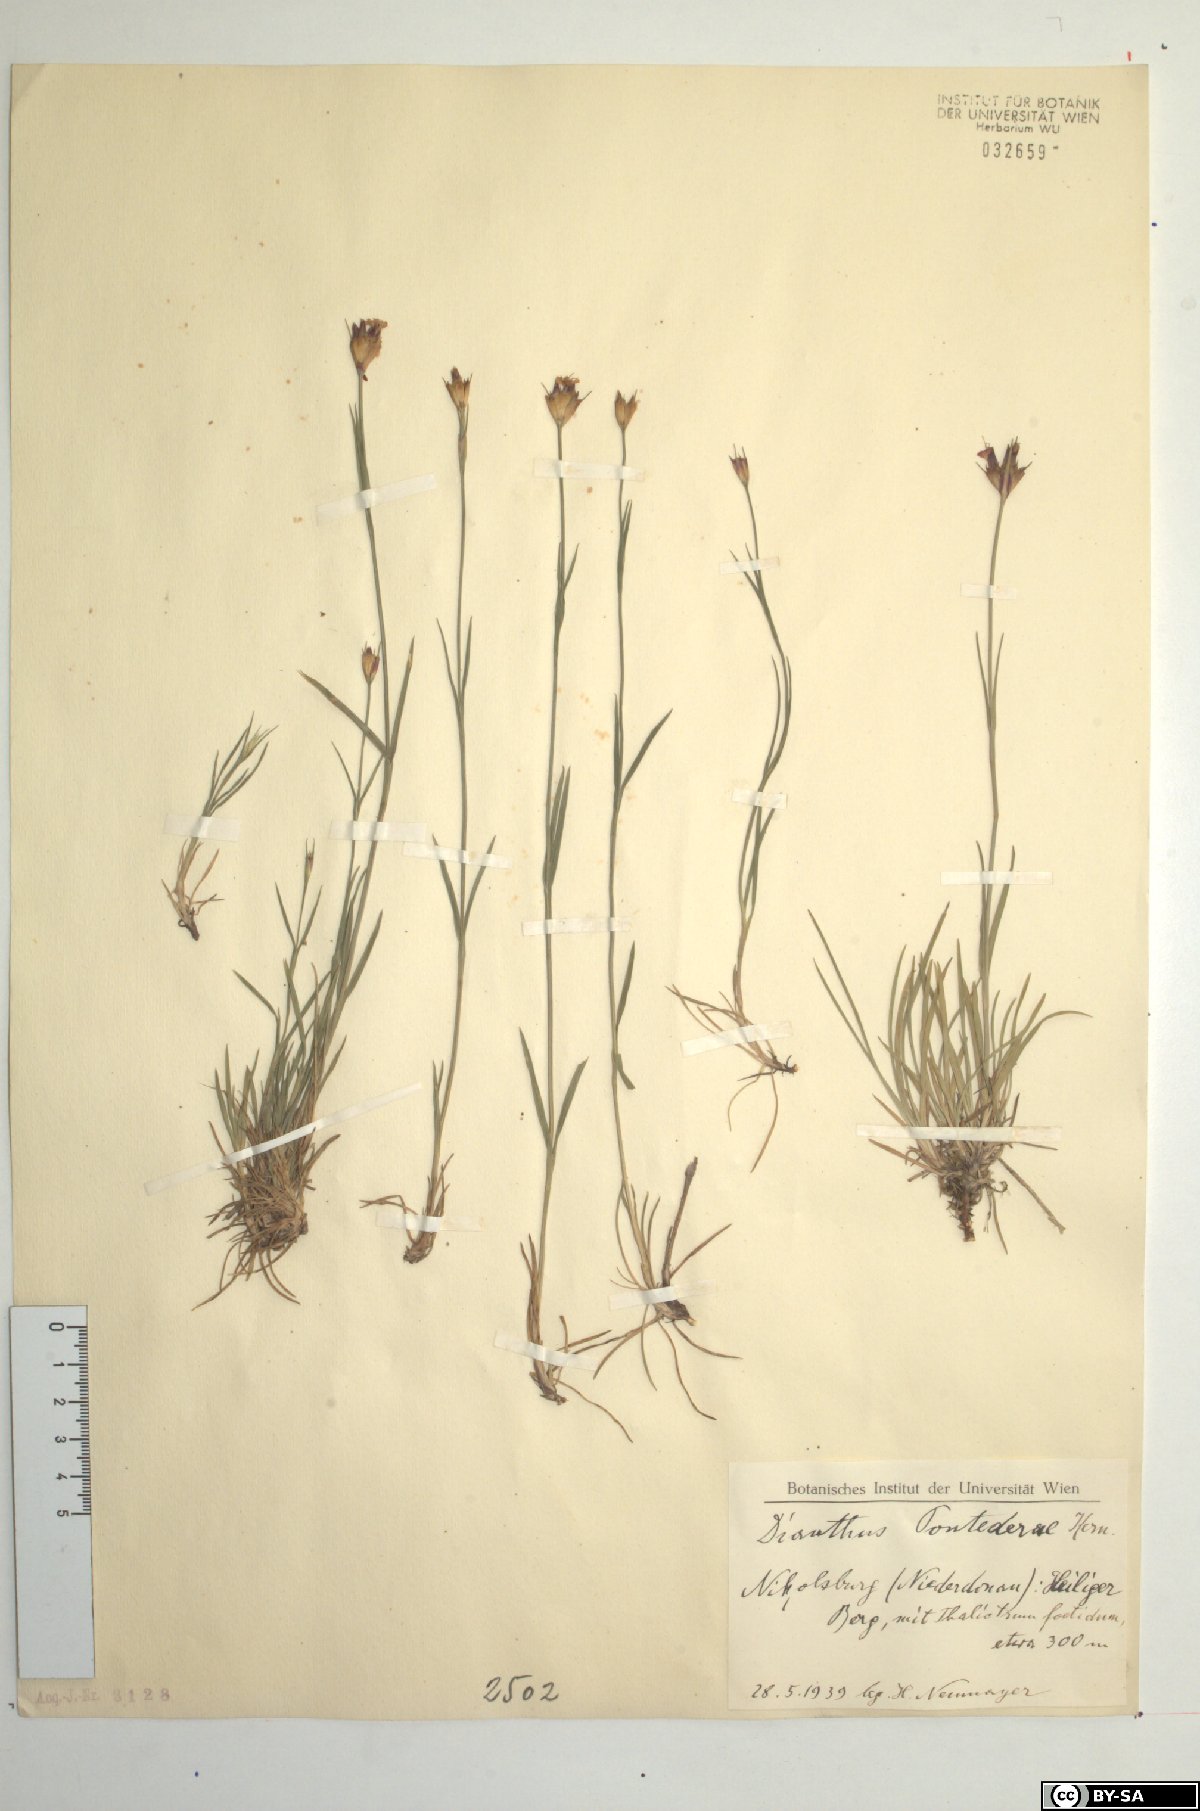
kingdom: Plantae
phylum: Tracheophyta
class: Magnoliopsida
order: Caryophyllales
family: Caryophyllaceae
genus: Dianthus
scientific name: Dianthus pontederae
